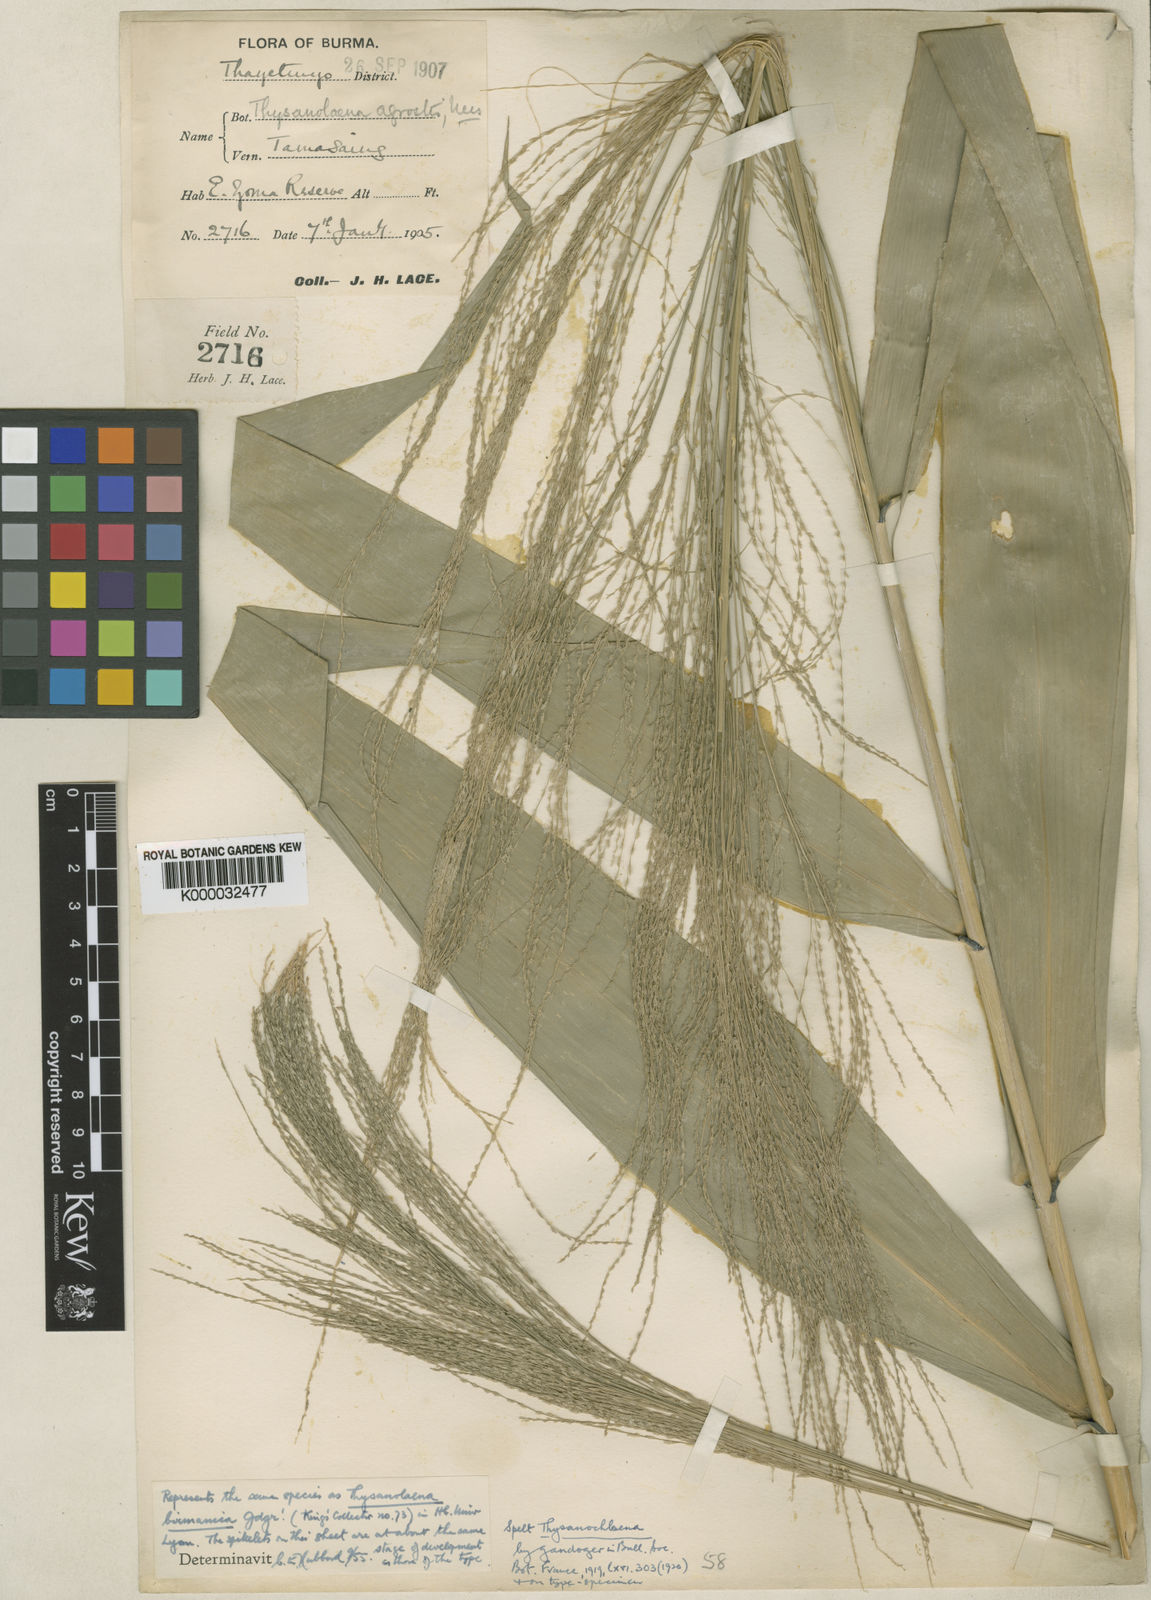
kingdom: Plantae
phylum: Tracheophyta
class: Liliopsida
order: Poales
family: Poaceae
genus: Thysanolaena
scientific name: Thysanolaena latifolia
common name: Tiger grass
